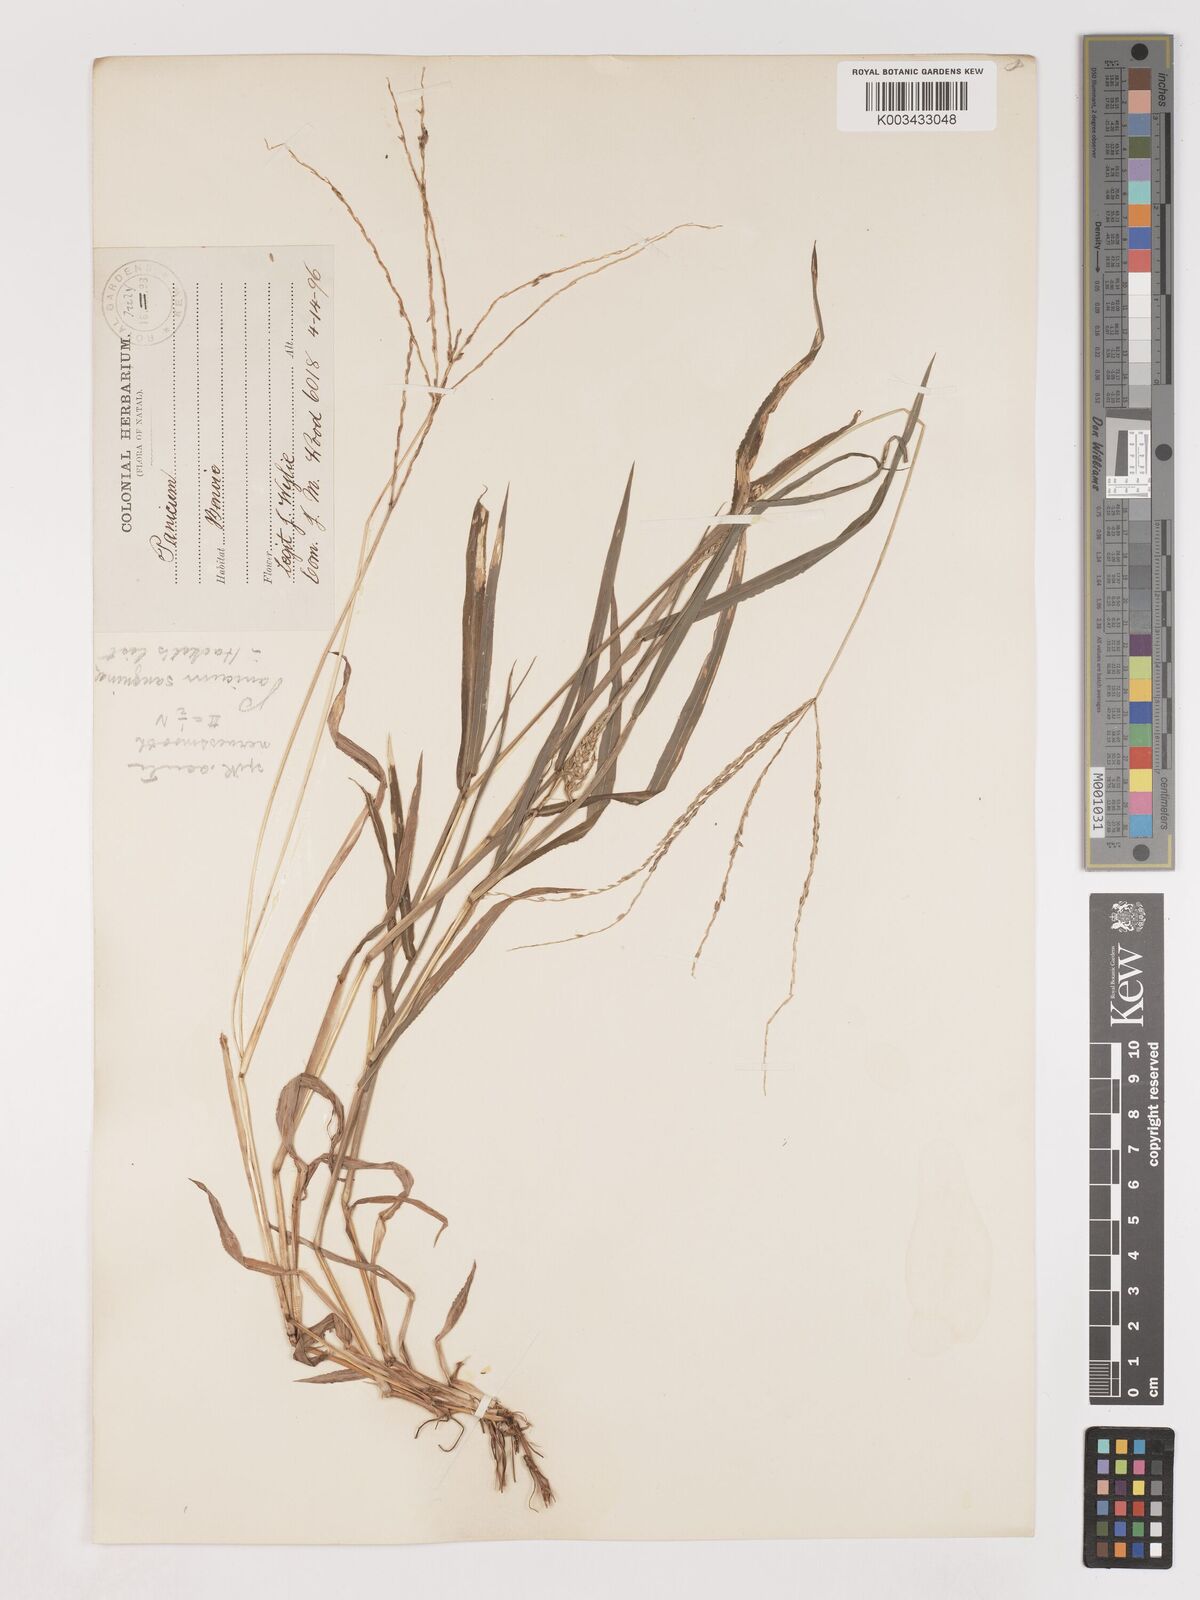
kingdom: Plantae
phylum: Tracheophyta
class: Liliopsida
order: Poales
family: Poaceae
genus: Digitaria
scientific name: Digitaria nuda
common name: Naked crabgrass
